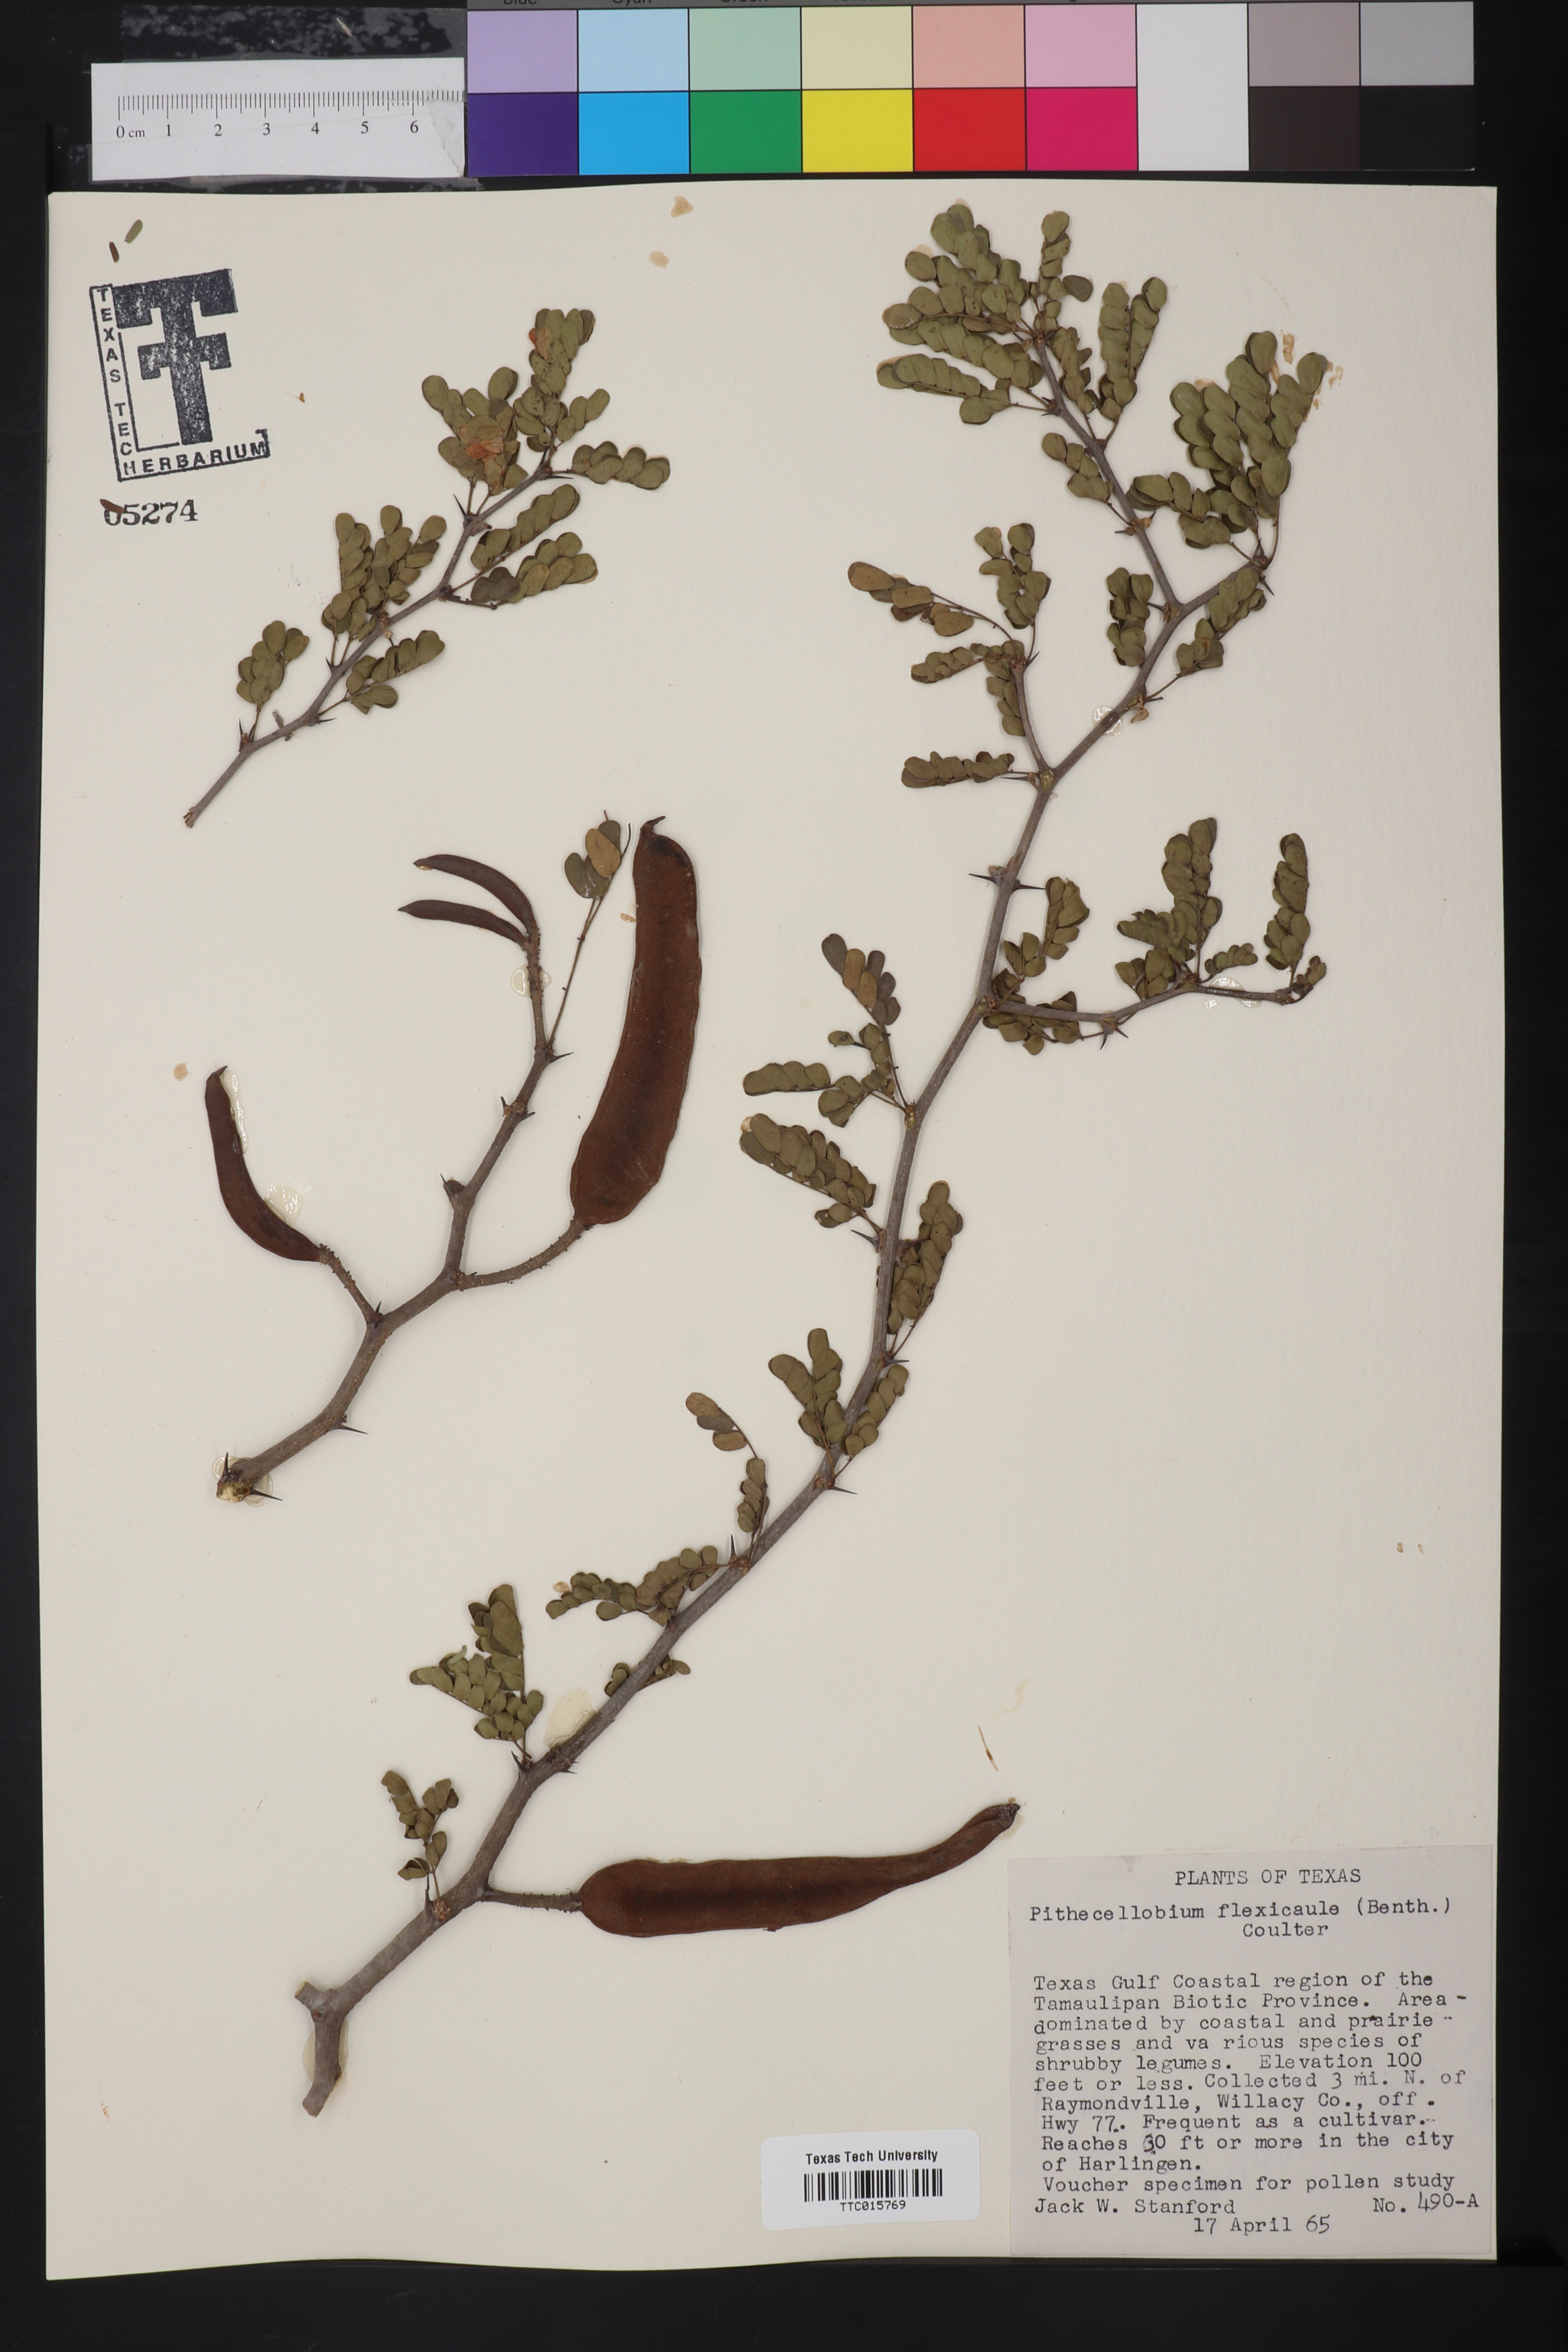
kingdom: Plantae
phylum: Tracheophyta
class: Magnoliopsida
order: Fabales
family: Fabaceae
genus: Ebenopsis
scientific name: Ebenopsis ebano
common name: Ebony blackbead
